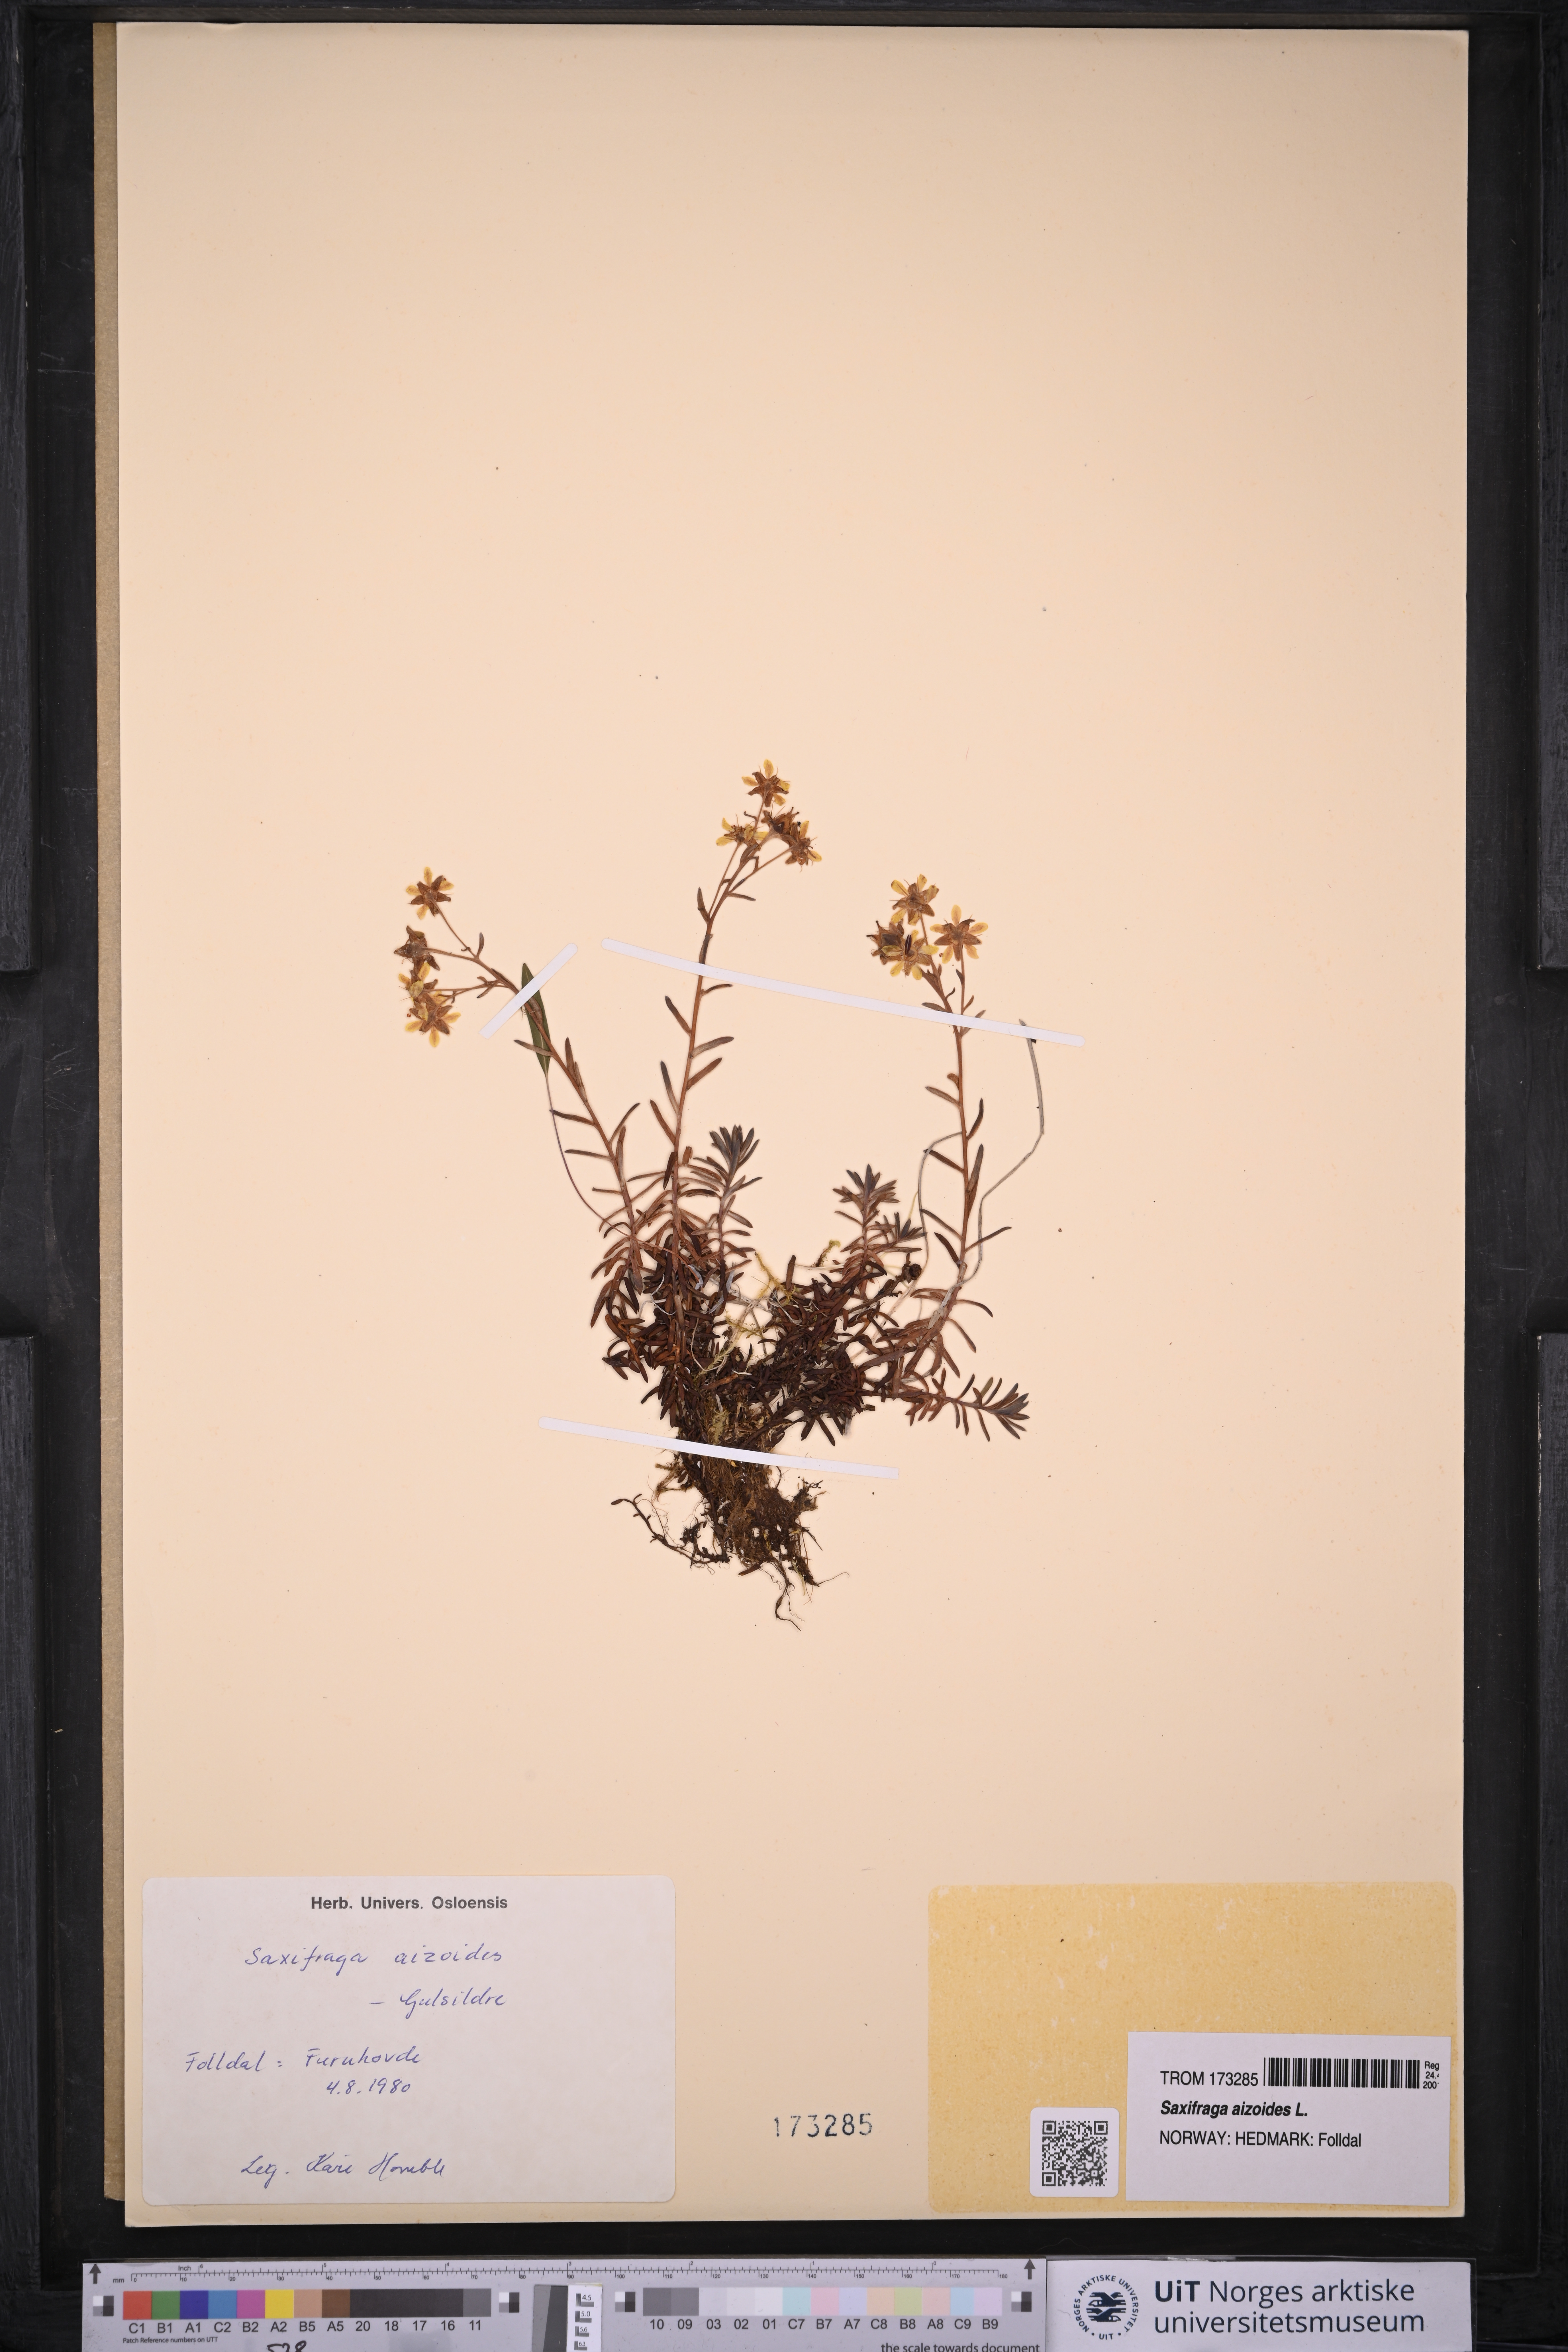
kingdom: Plantae
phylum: Tracheophyta
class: Magnoliopsida
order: Saxifragales
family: Saxifragaceae
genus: Saxifraga
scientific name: Saxifraga aizoides
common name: Yellow mountain saxifrage
